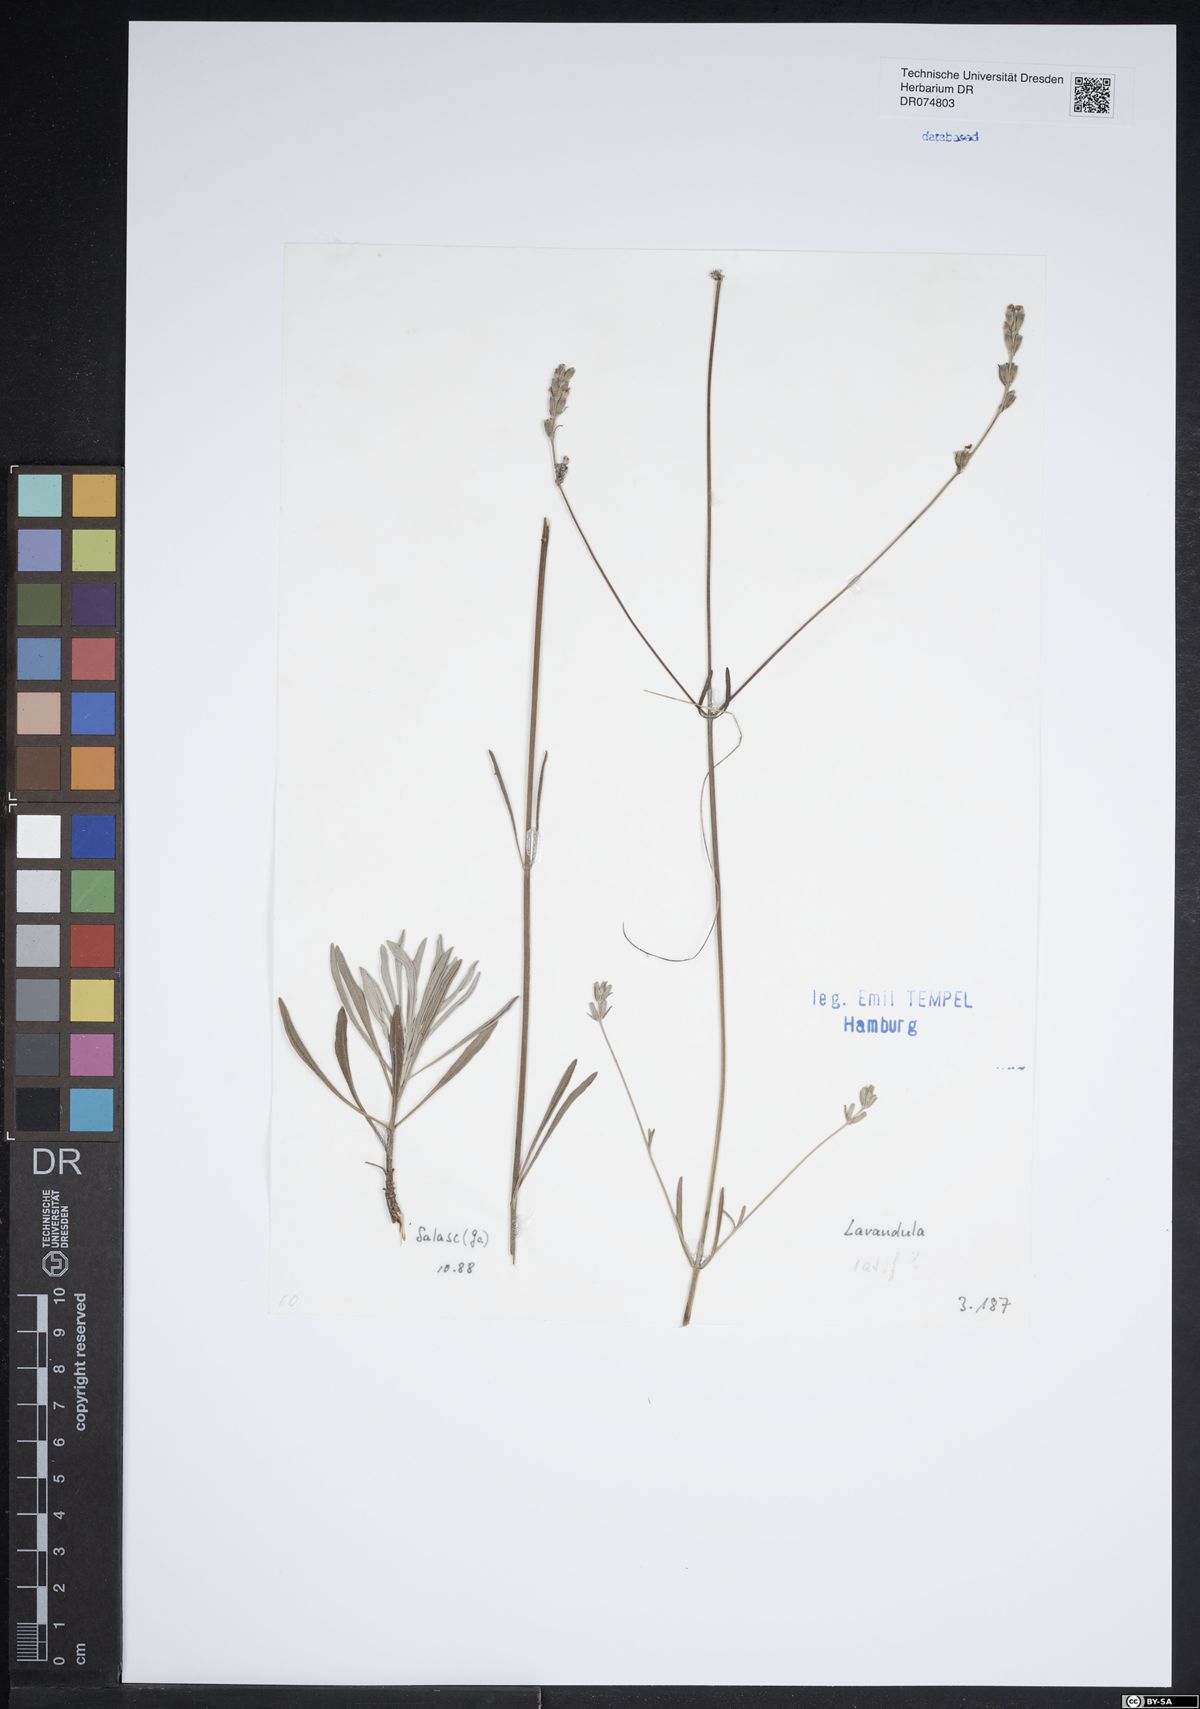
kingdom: Plantae
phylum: Tracheophyta
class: Magnoliopsida
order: Lamiales
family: Lamiaceae
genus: Lavandula
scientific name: Lavandula latifolia
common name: Spike lavendar
